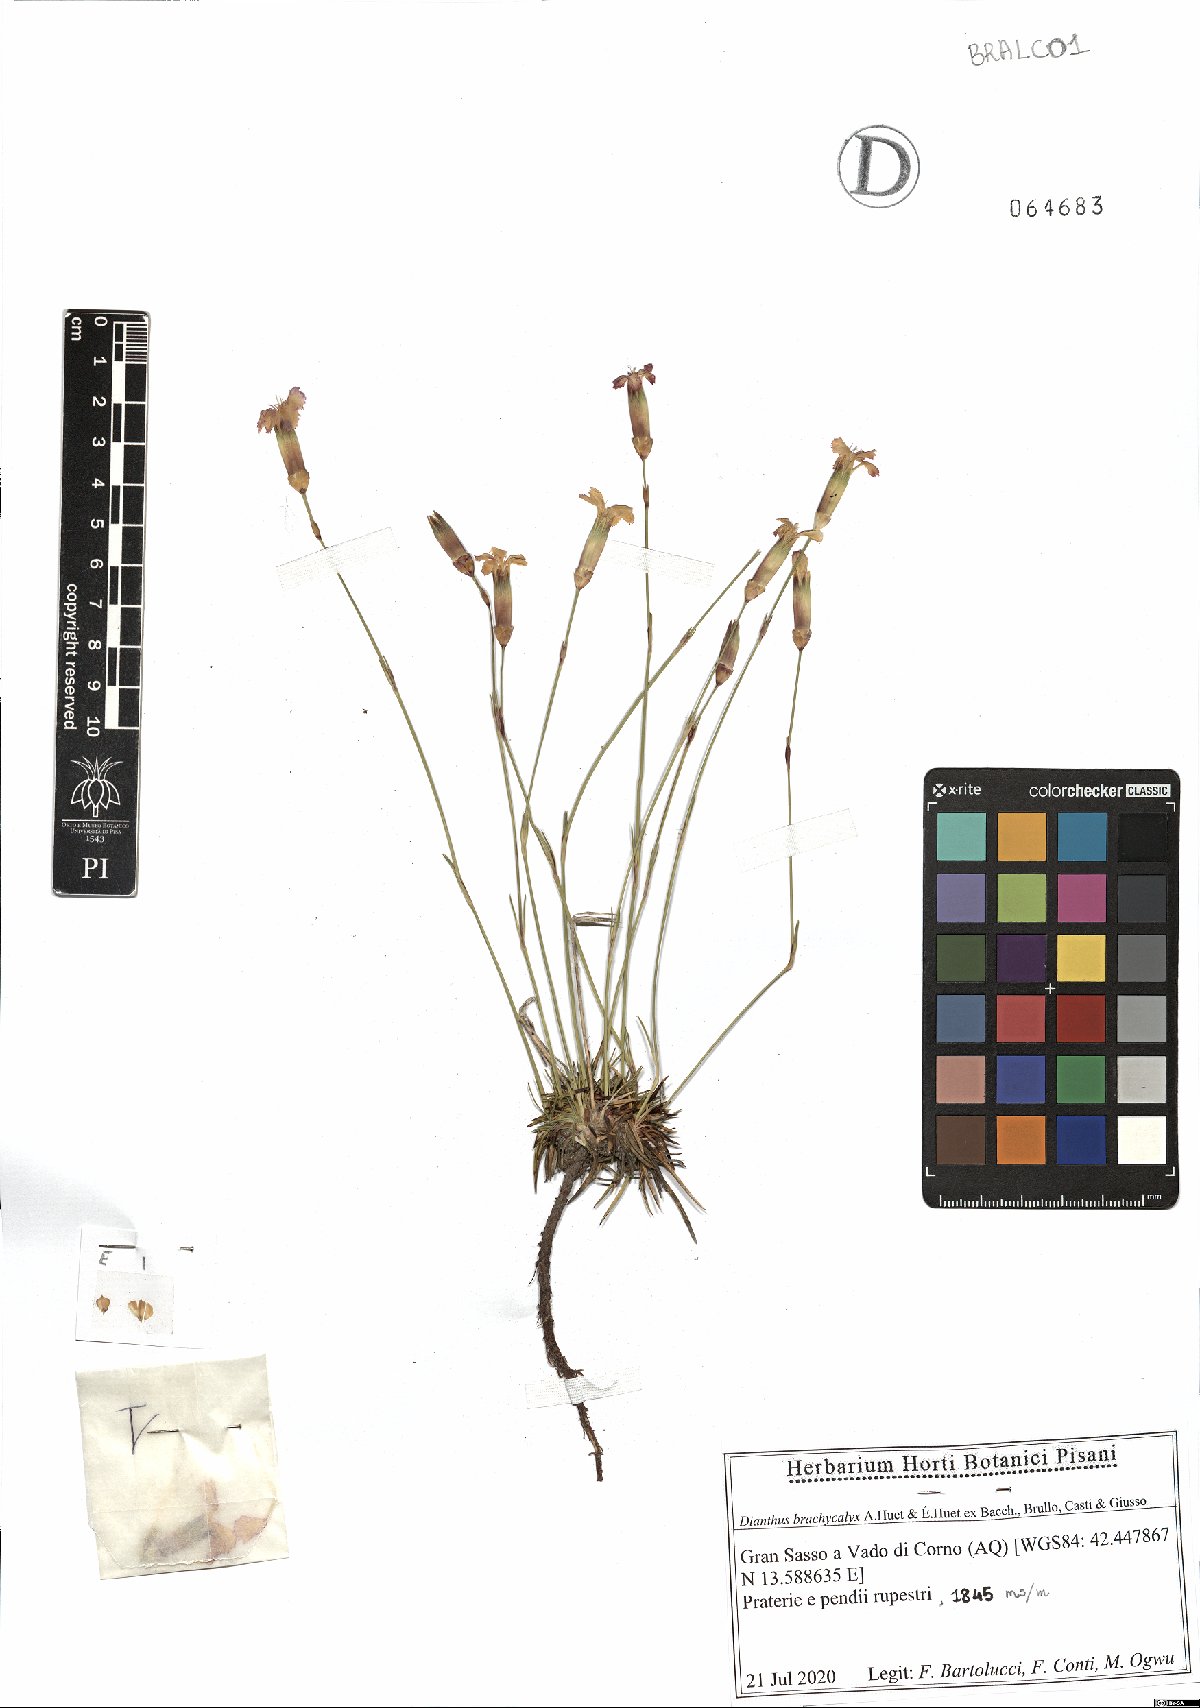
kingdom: Plantae
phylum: Tracheophyta
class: Magnoliopsida
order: Caryophyllales
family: Caryophyllaceae
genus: Dianthus
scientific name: Dianthus brachycalyx
